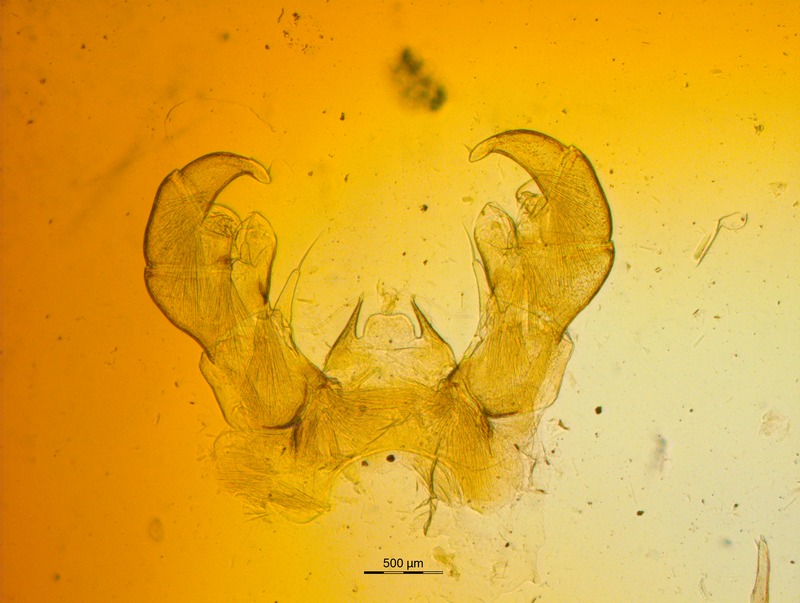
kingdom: Animalia
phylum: Arthropoda
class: Diplopoda
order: Glomerida
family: Glomeridae
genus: Rhopalomeris
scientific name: Rhopalomeris tonkinensis
